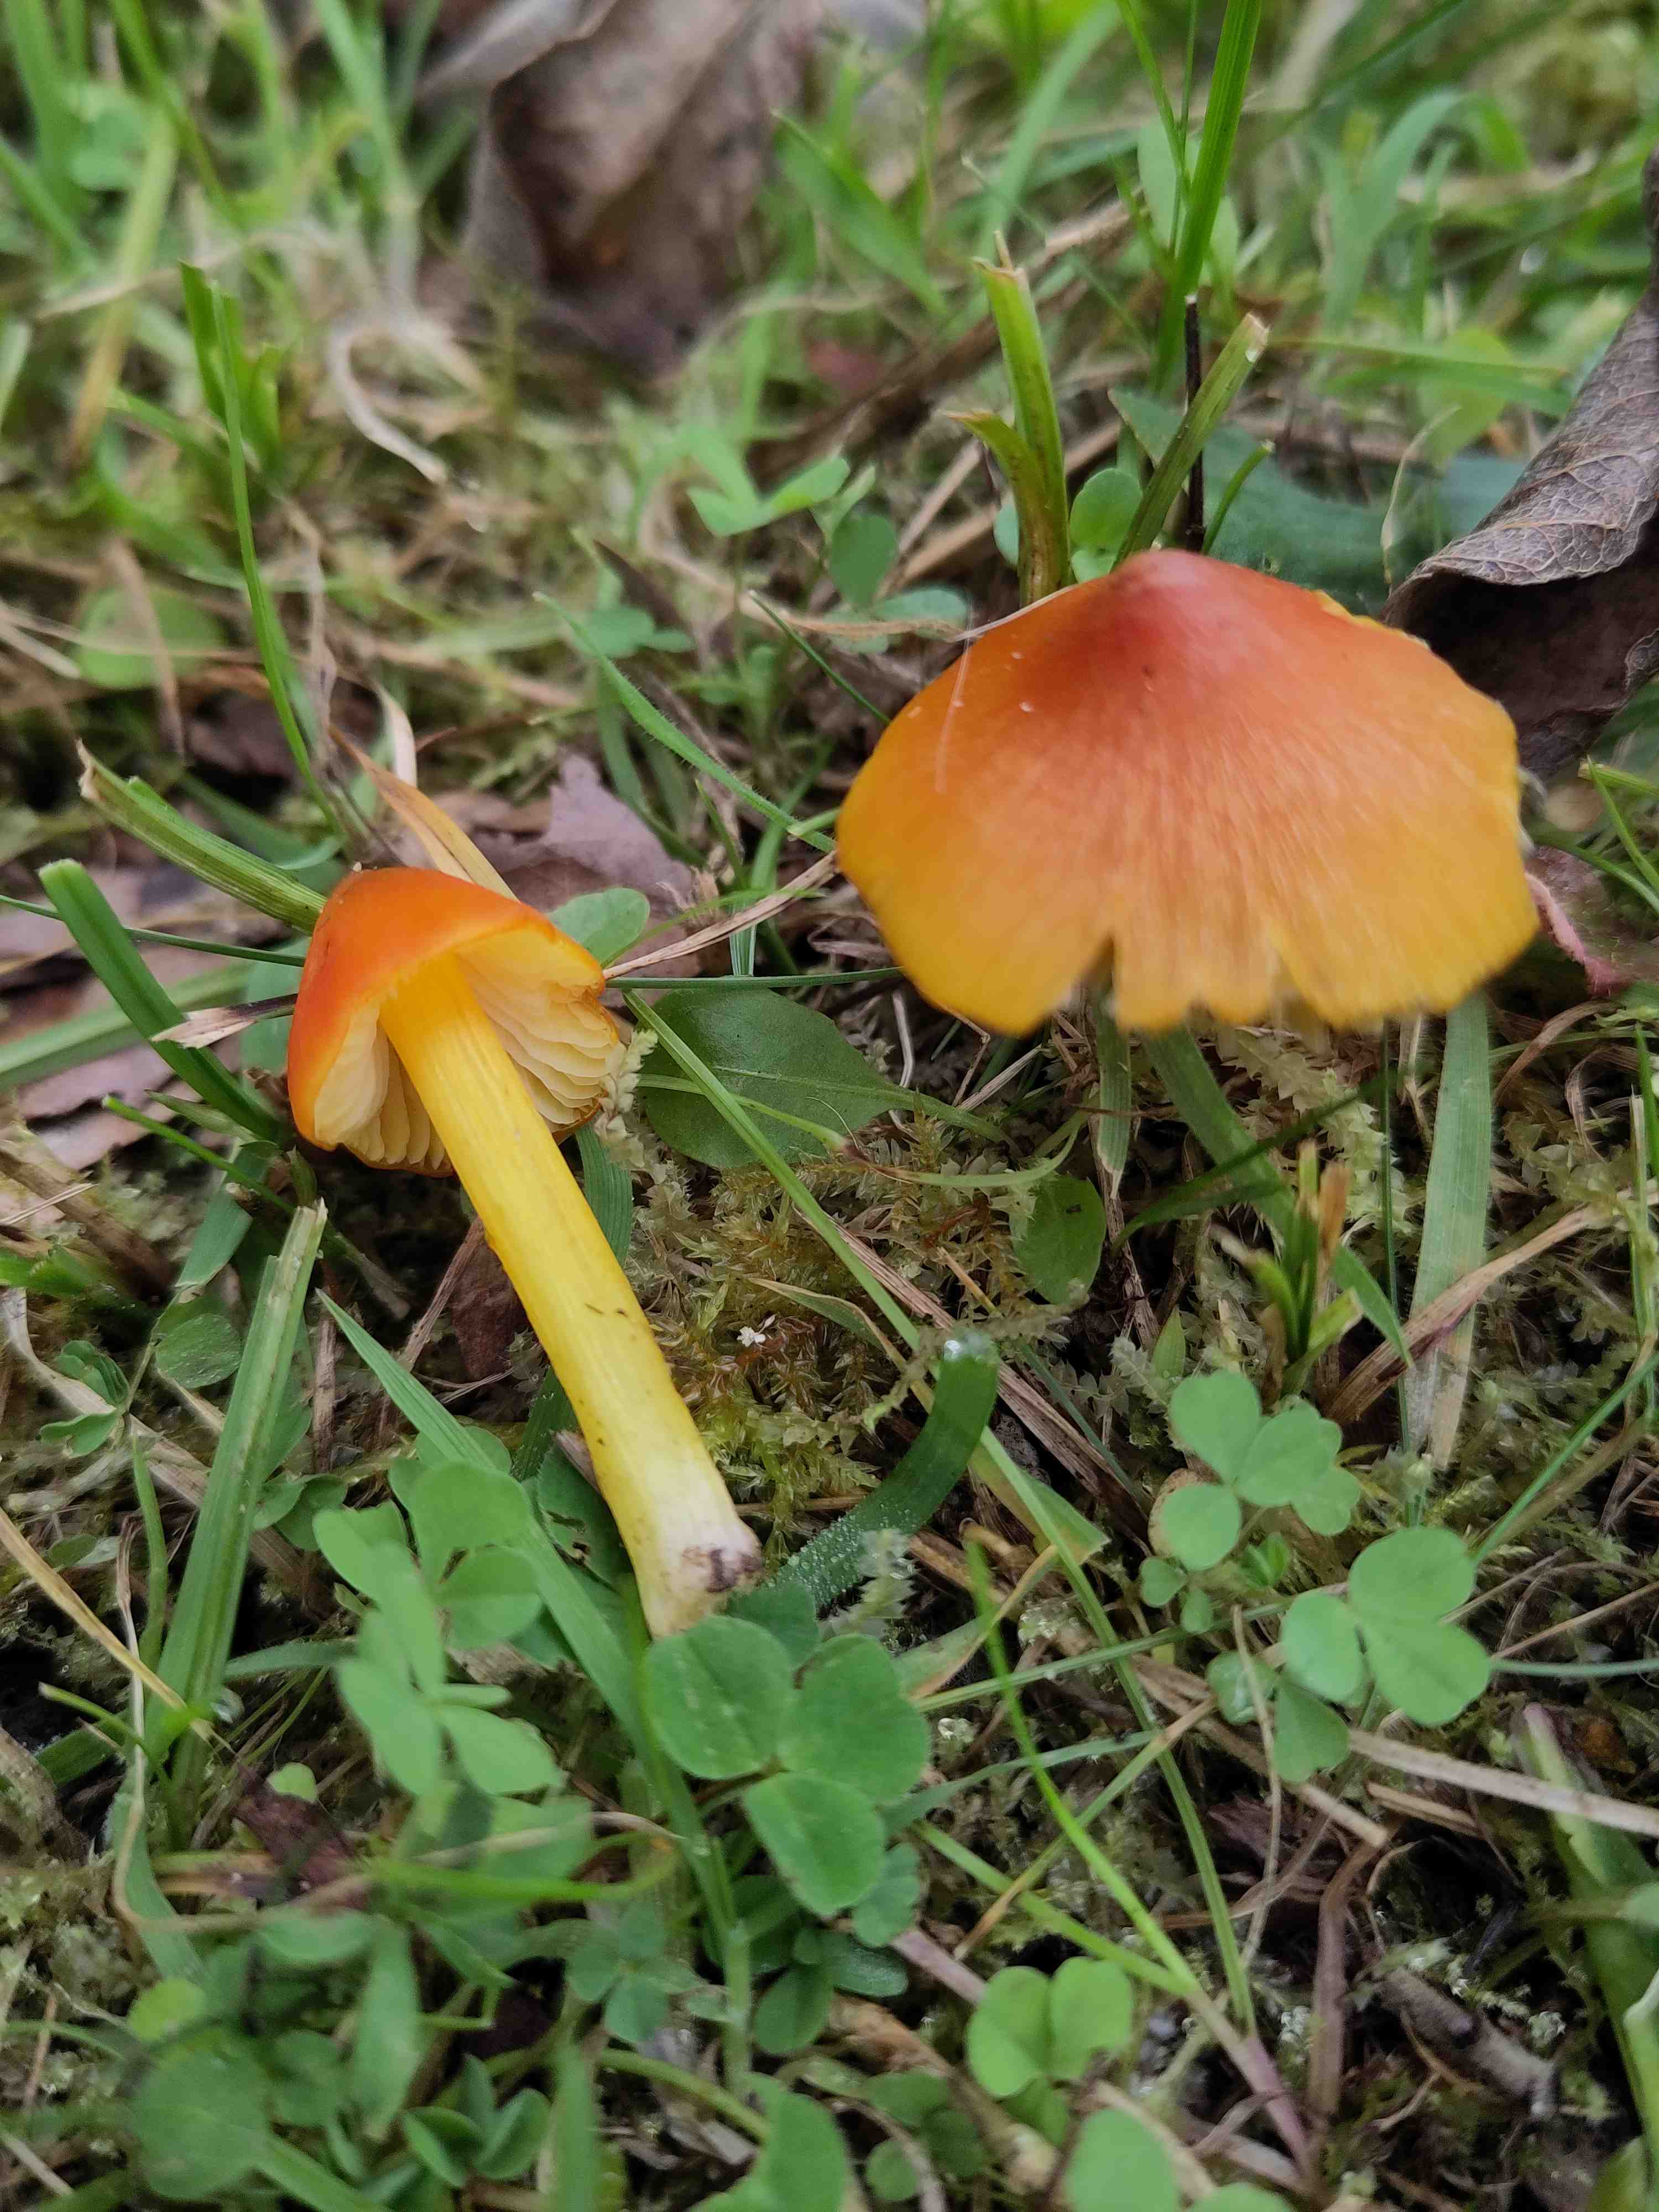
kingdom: Fungi
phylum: Basidiomycota
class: Agaricomycetes
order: Agaricales
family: Hygrophoraceae
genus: Hygrocybe
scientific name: Hygrocybe
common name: vokshat
